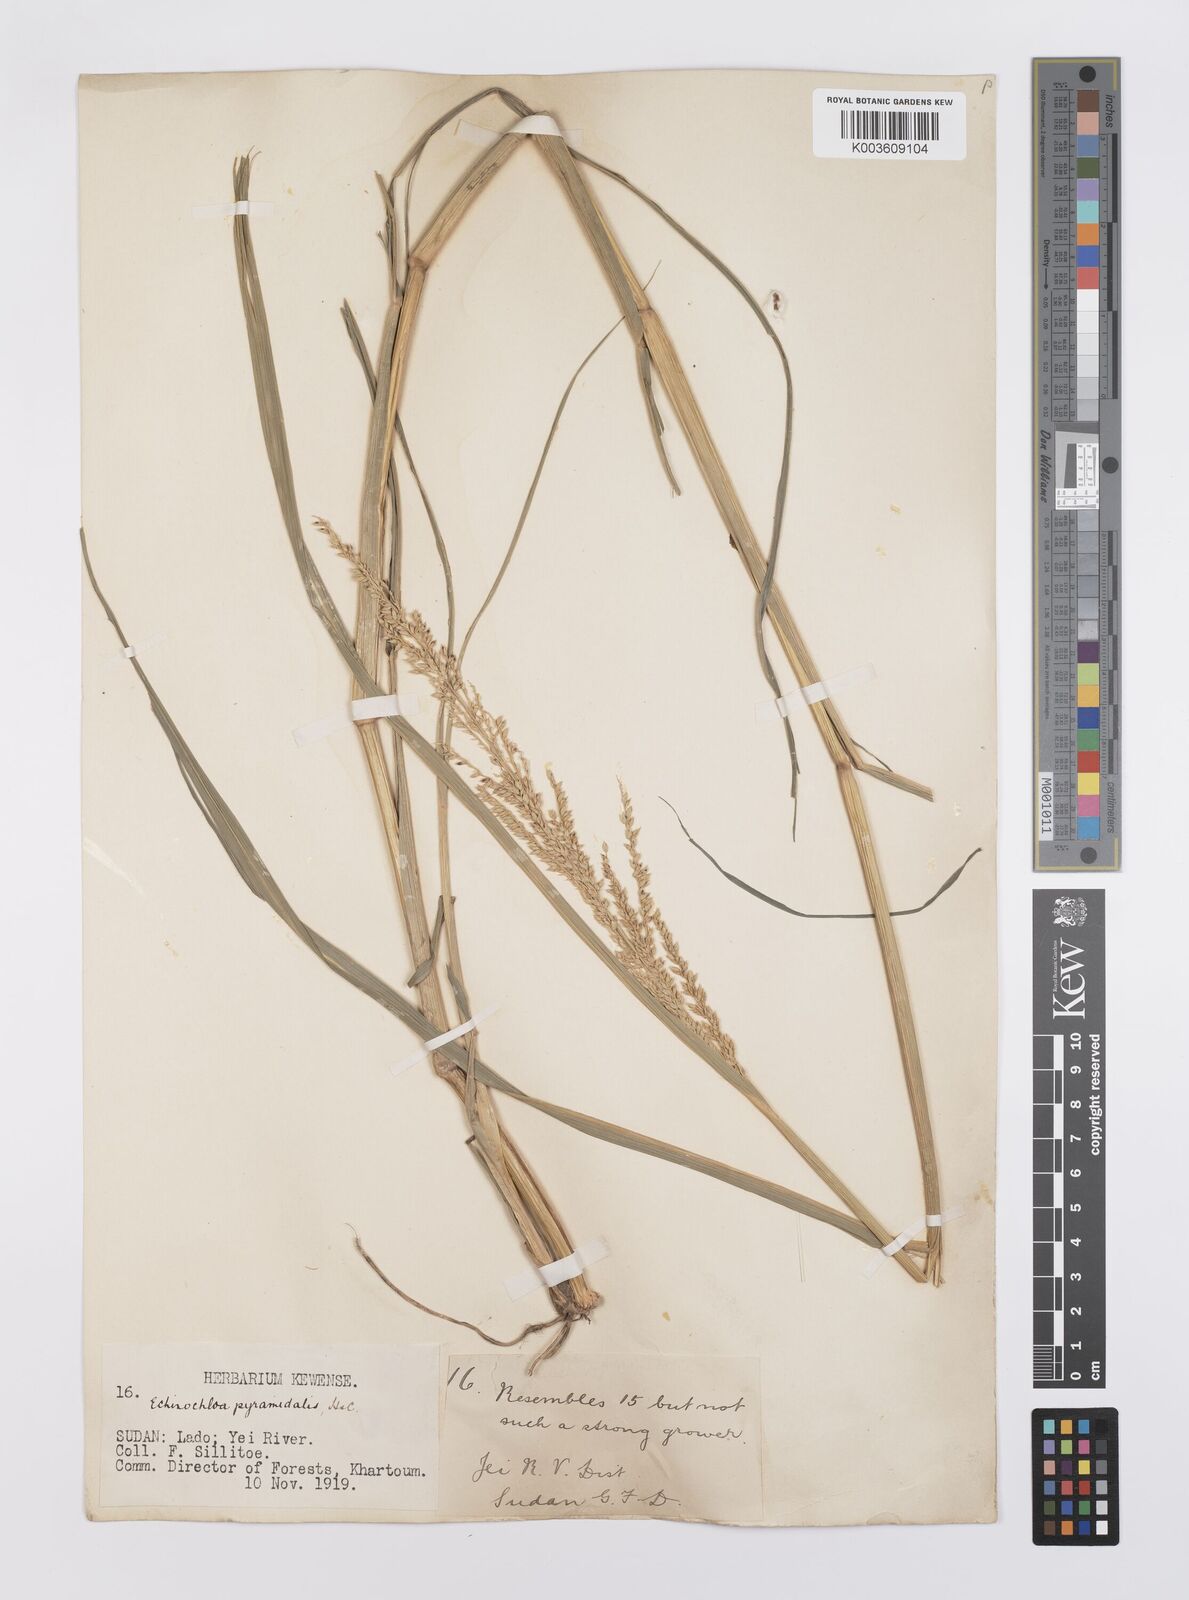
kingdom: Plantae
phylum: Tracheophyta
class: Liliopsida
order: Poales
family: Poaceae
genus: Echinochloa
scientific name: Echinochloa pyramidalis
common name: Antelope grass
